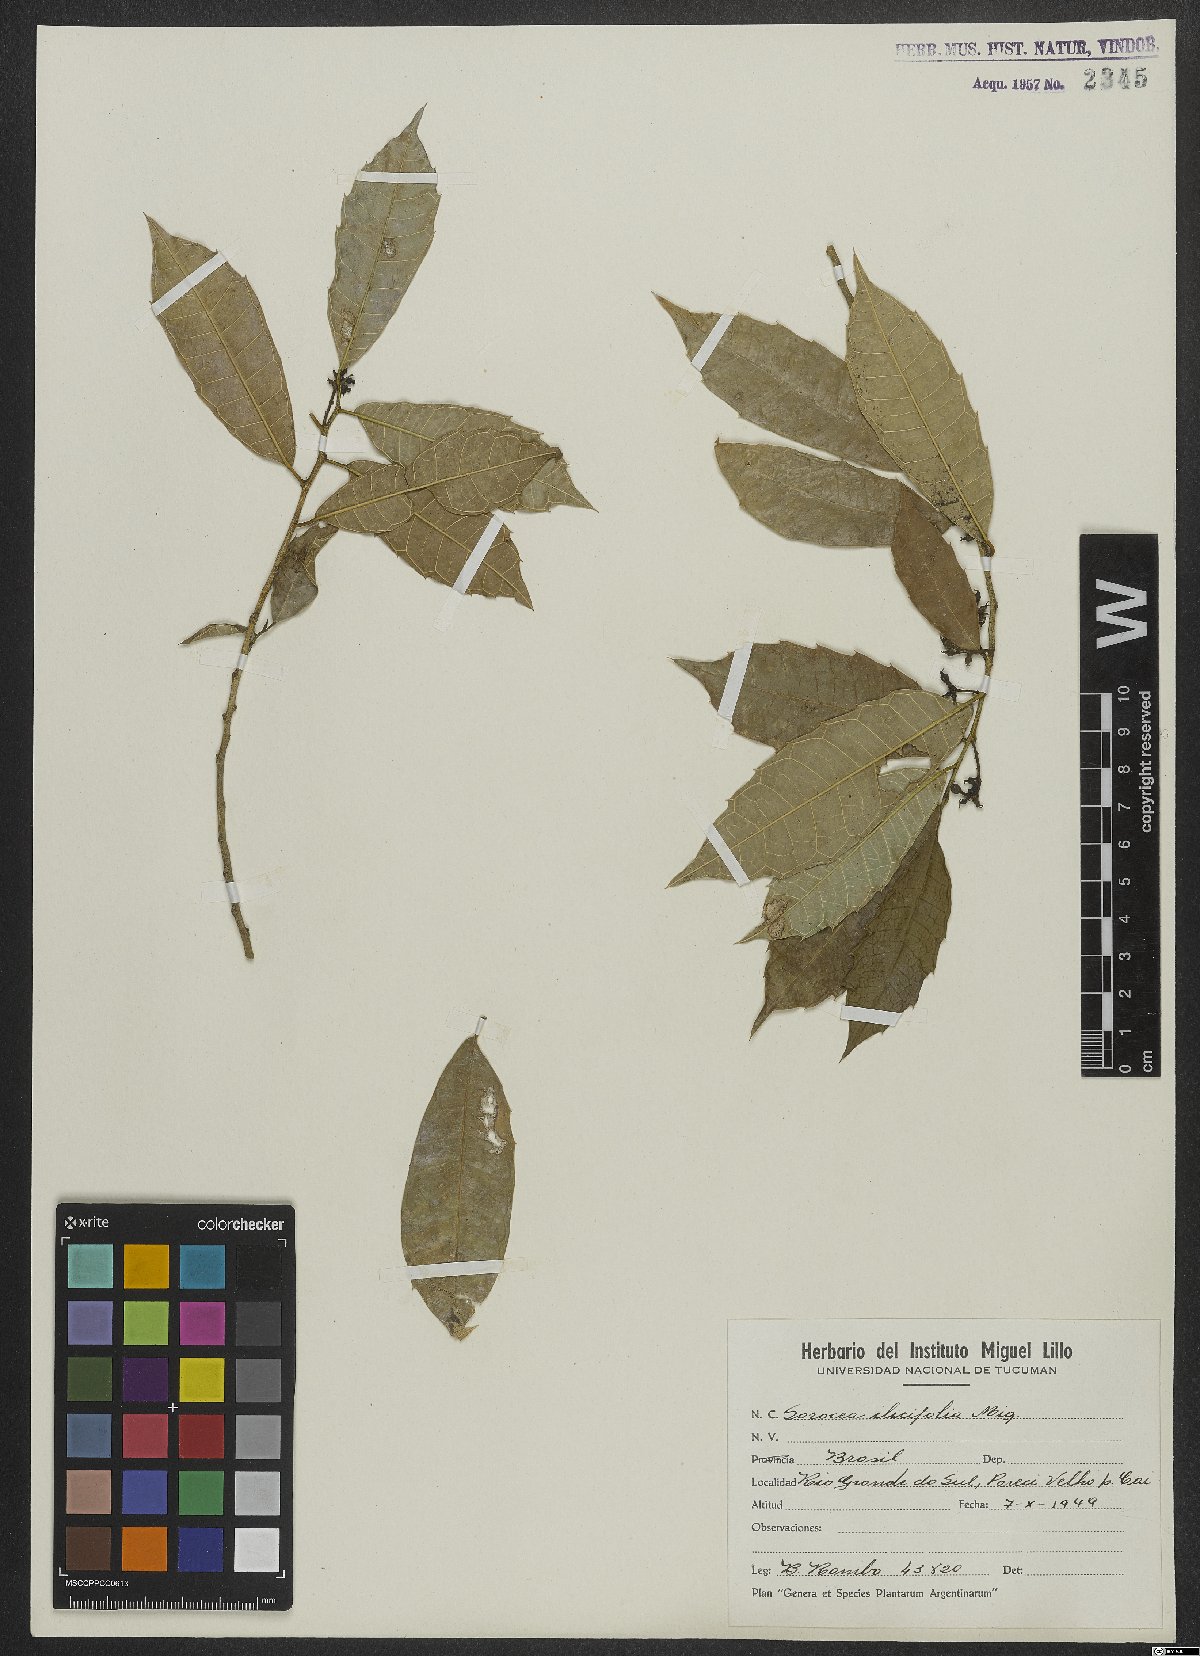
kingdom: Plantae
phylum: Tracheophyta
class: Magnoliopsida
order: Rosales
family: Moraceae
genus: Sorocea
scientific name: Sorocea
